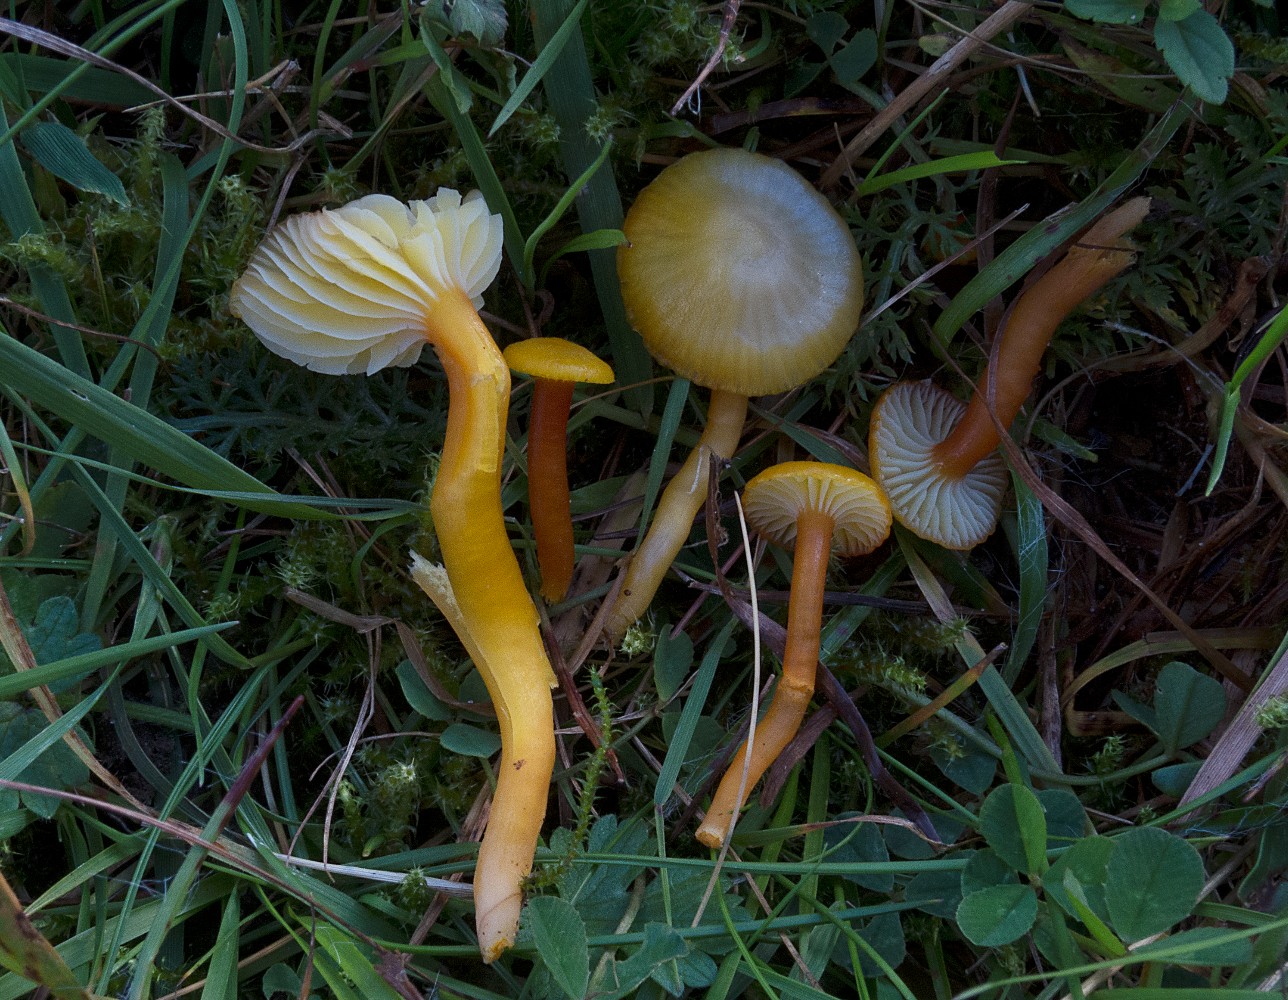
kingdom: Fungi
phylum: Basidiomycota
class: Agaricomycetes
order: Agaricales
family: Hygrophoraceae
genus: Hygrocybe
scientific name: Hygrocybe insipida
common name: liden vokshat
